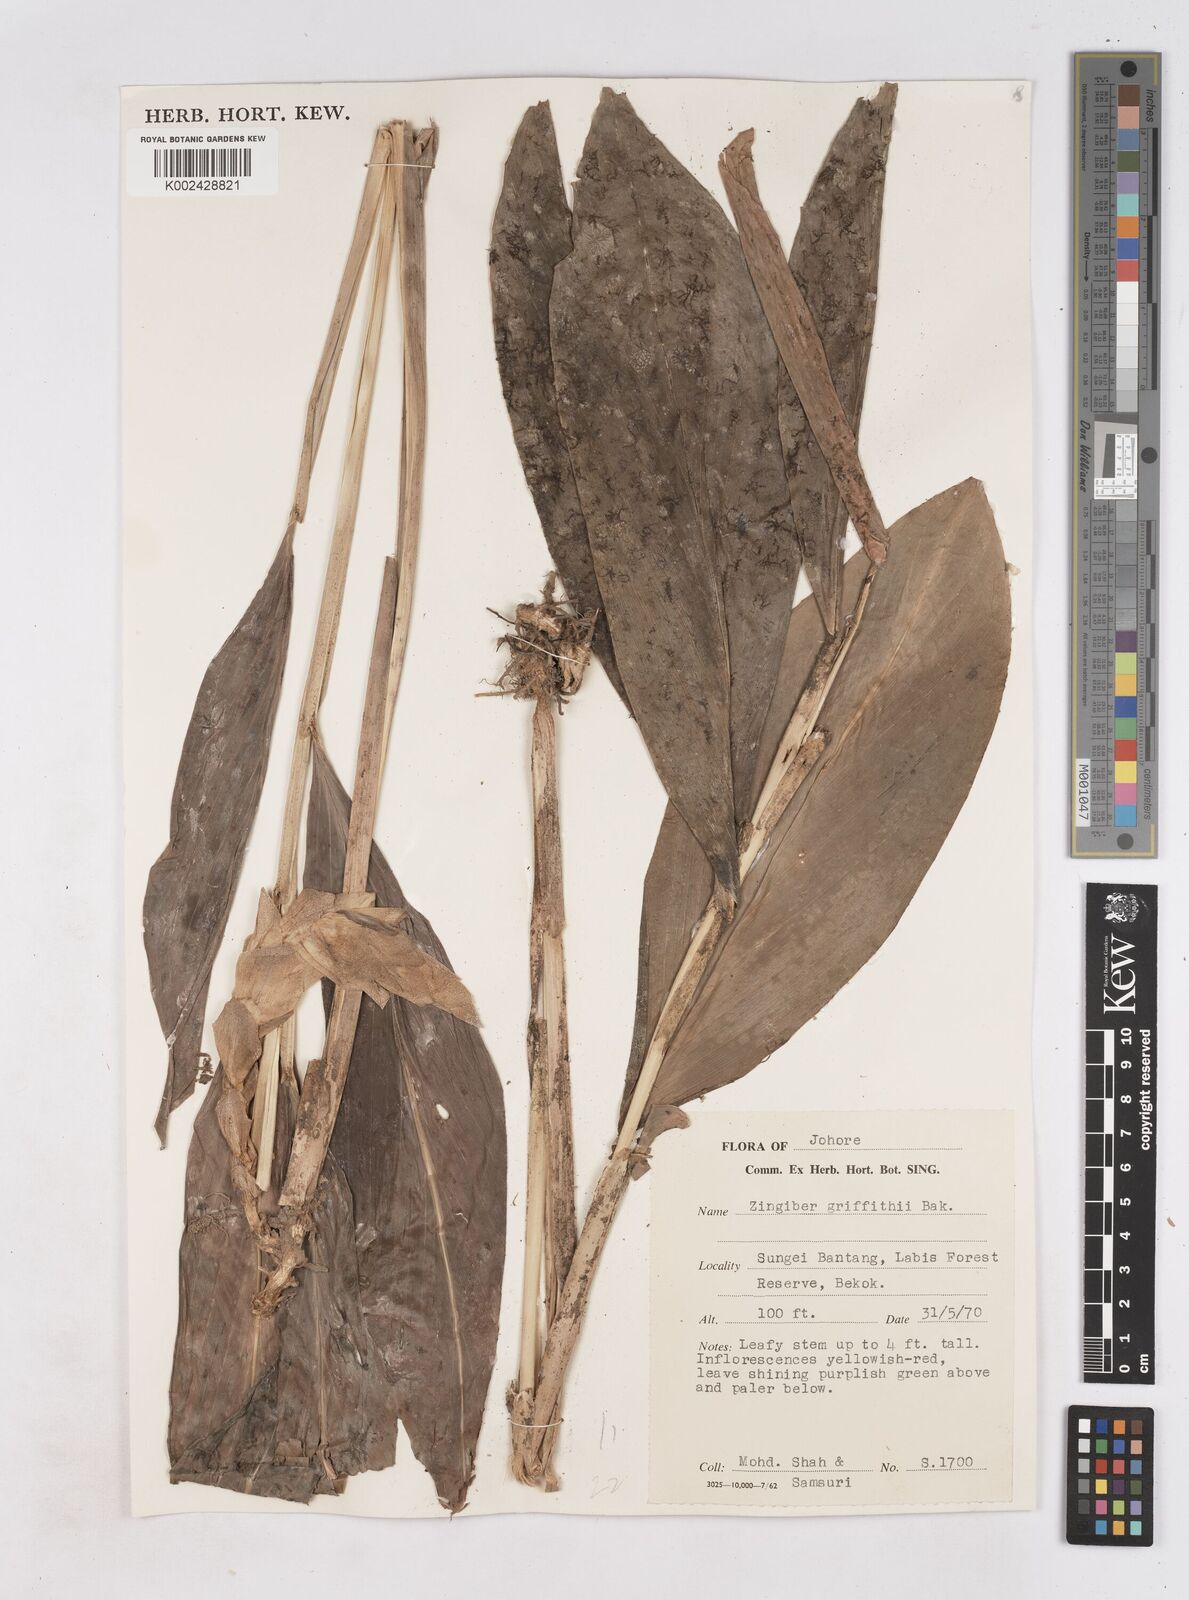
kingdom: Plantae
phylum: Tracheophyta
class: Liliopsida
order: Zingiberales
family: Zingiberaceae
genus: Zingiber
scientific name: Zingiber griffithii
